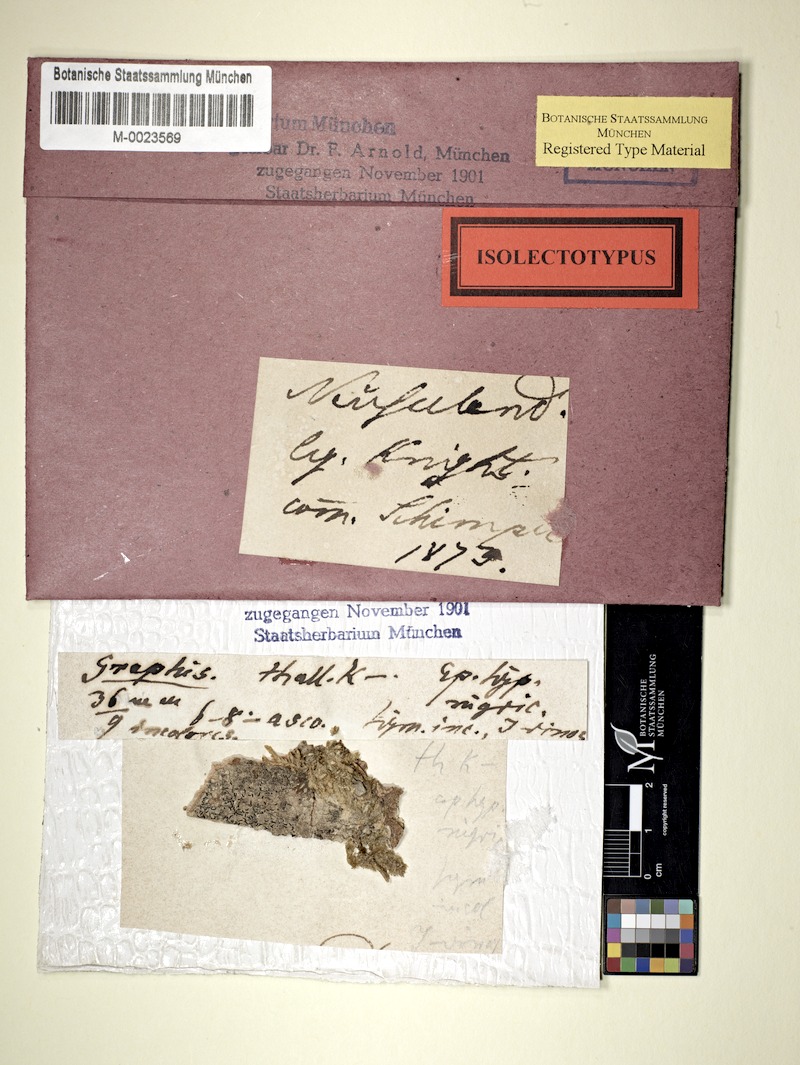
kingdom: Fungi
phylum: Ascomycota
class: Arthoniomycetes
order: Arthoniales
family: Opegraphaceae
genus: Opegrapha
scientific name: Opegrapha agelaeoides
